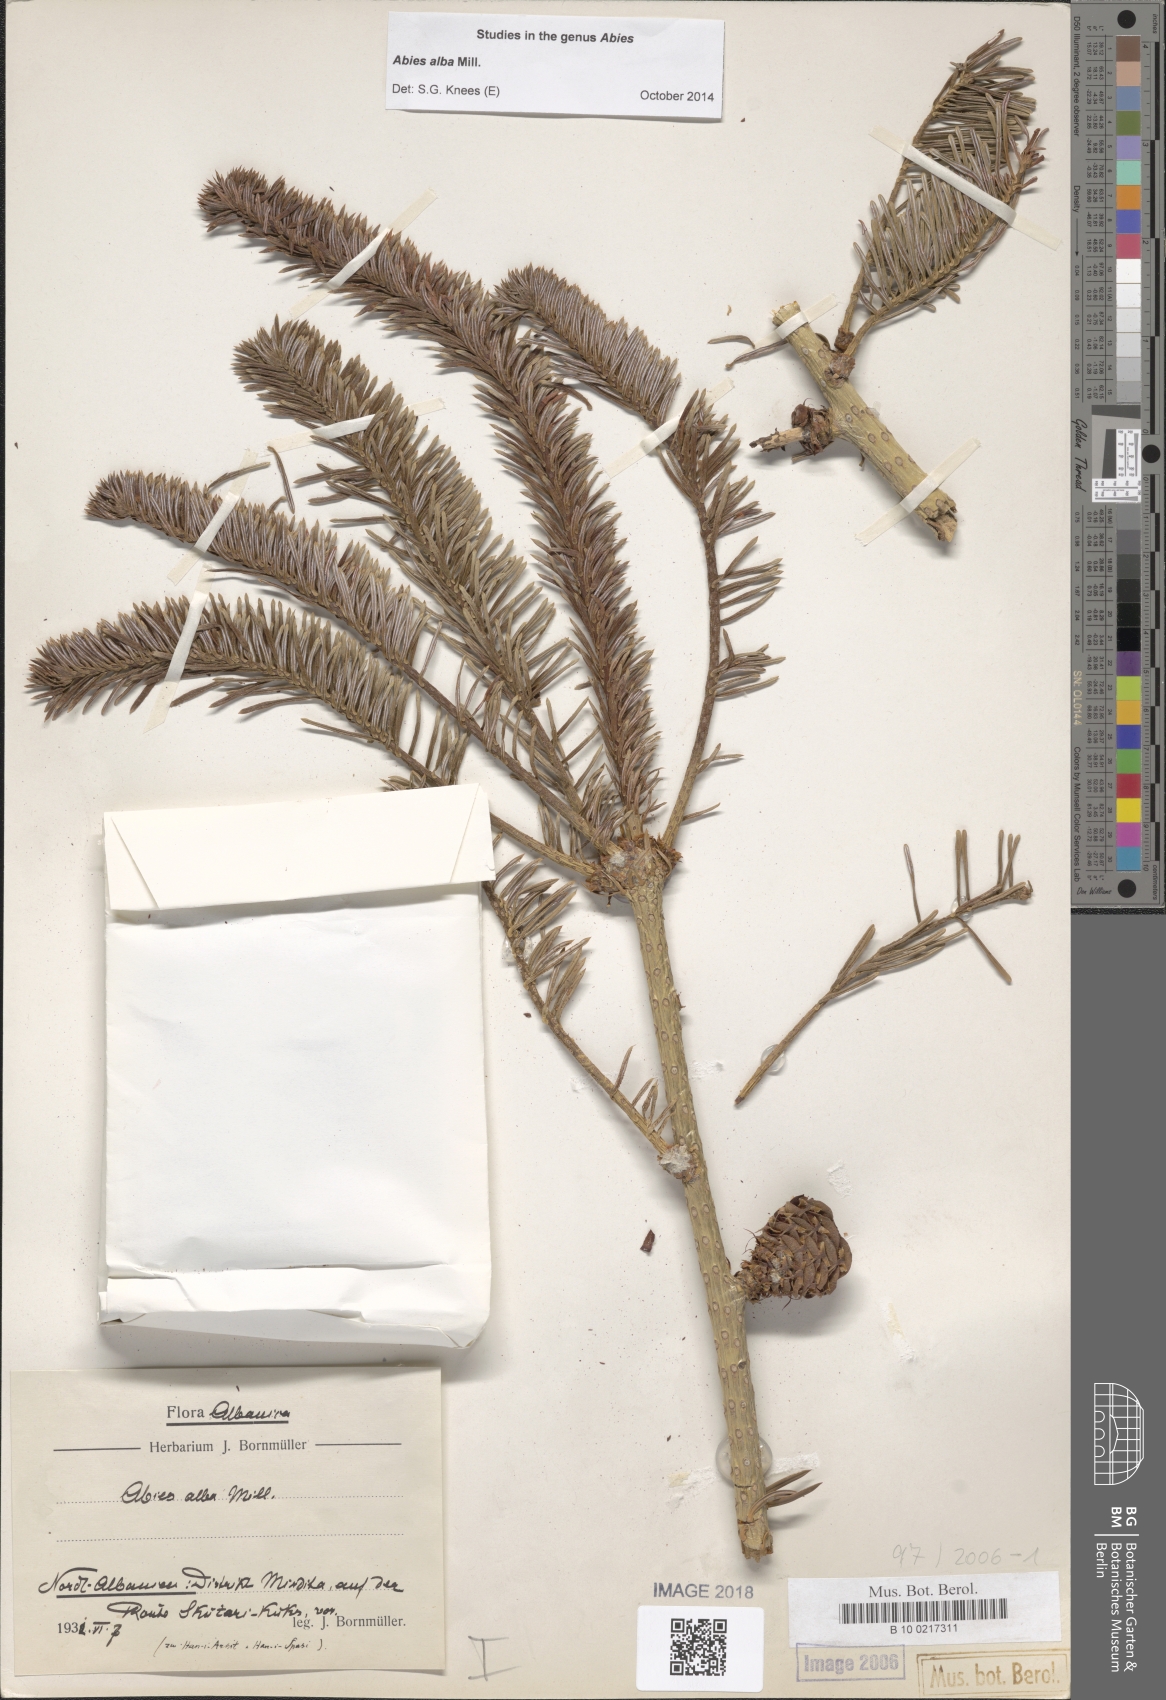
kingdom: Plantae
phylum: Tracheophyta
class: Pinopsida
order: Pinales
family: Pinaceae
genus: Abies
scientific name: Abies alba
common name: Silver fir
